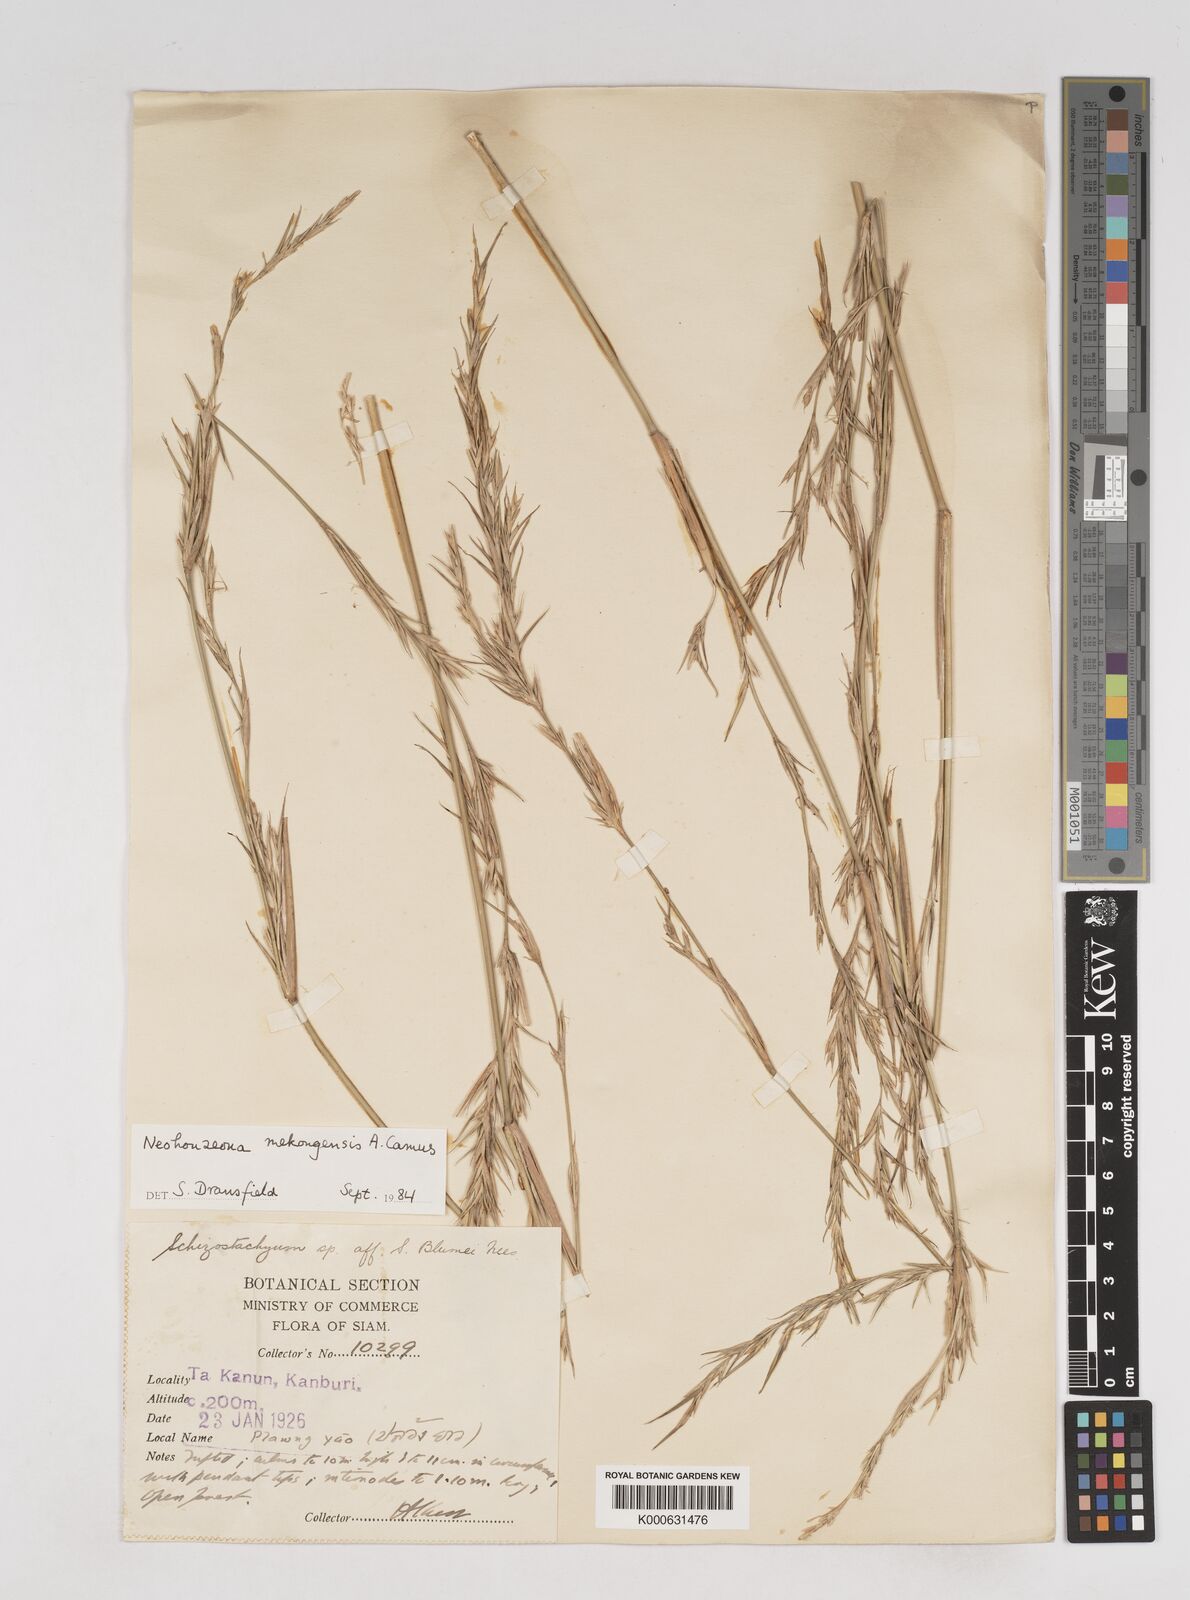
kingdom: Plantae
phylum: Tracheophyta
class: Liliopsida
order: Poales
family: Poaceae
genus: Schizostachyum
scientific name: Schizostachyum mekongensis
